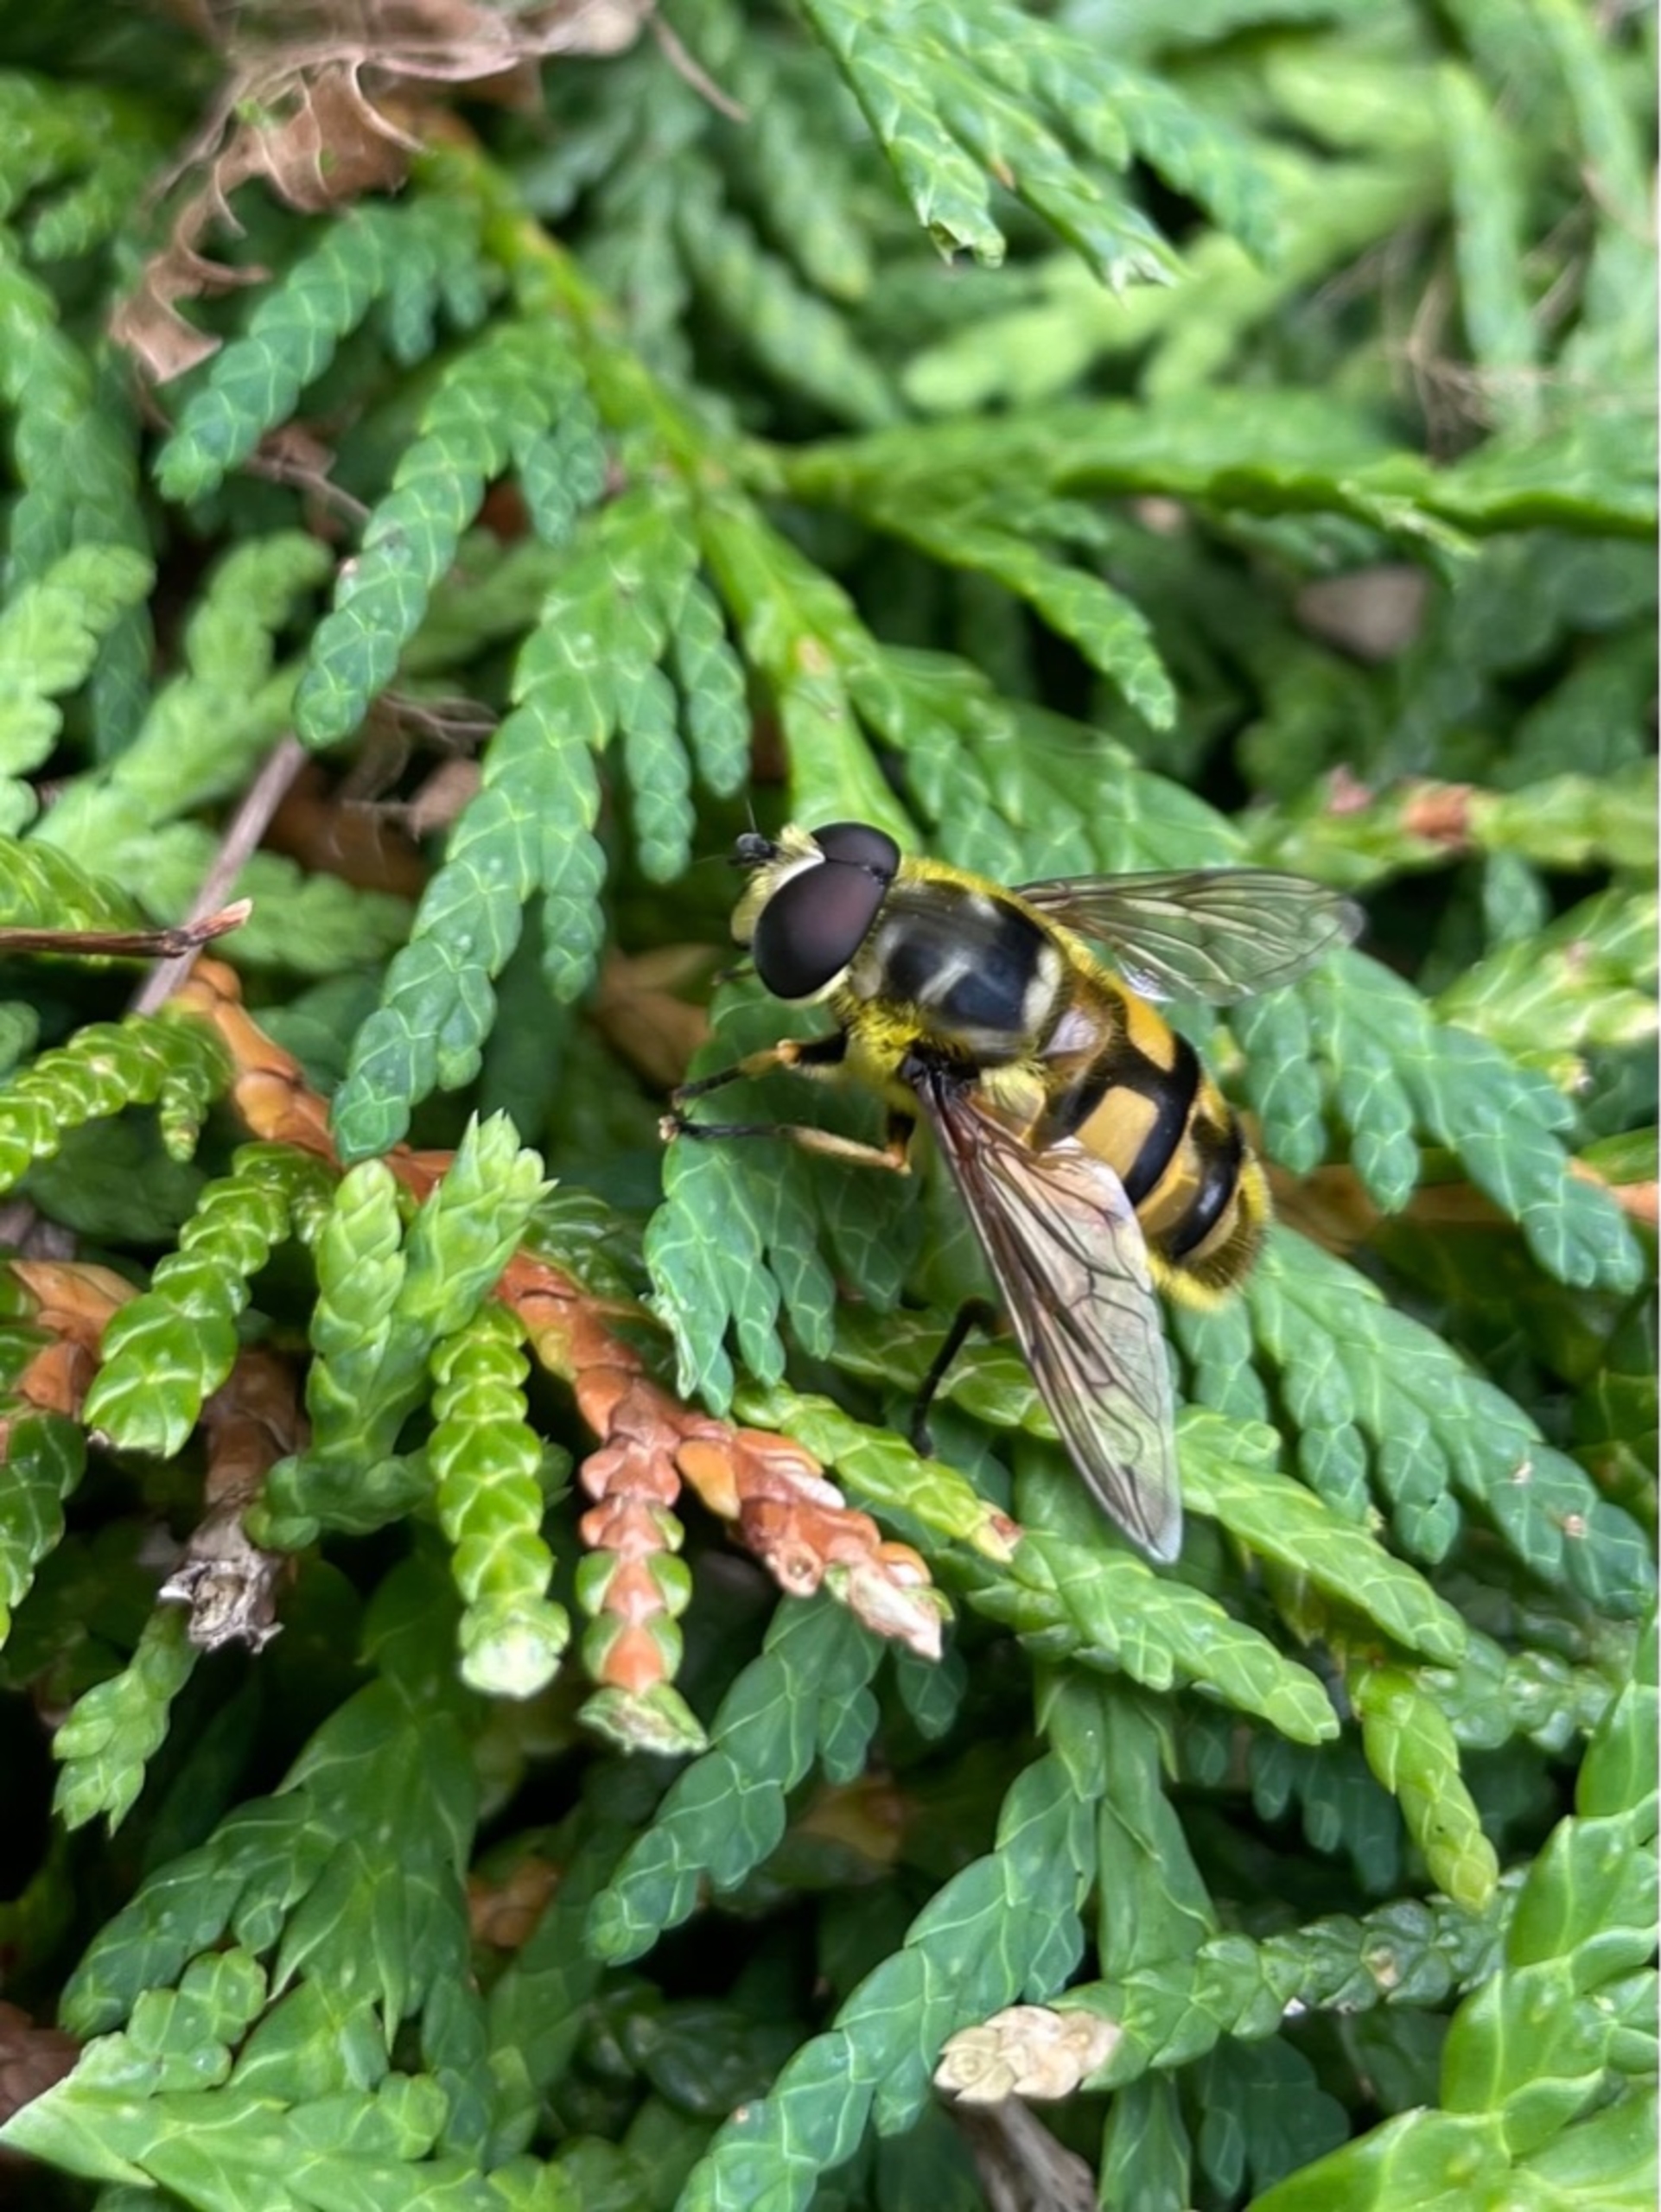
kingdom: Animalia
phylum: Arthropoda
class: Insecta
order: Diptera
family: Syrphidae
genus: Myathropa
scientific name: Myathropa florea
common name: Dødningehoved-svirreflue
